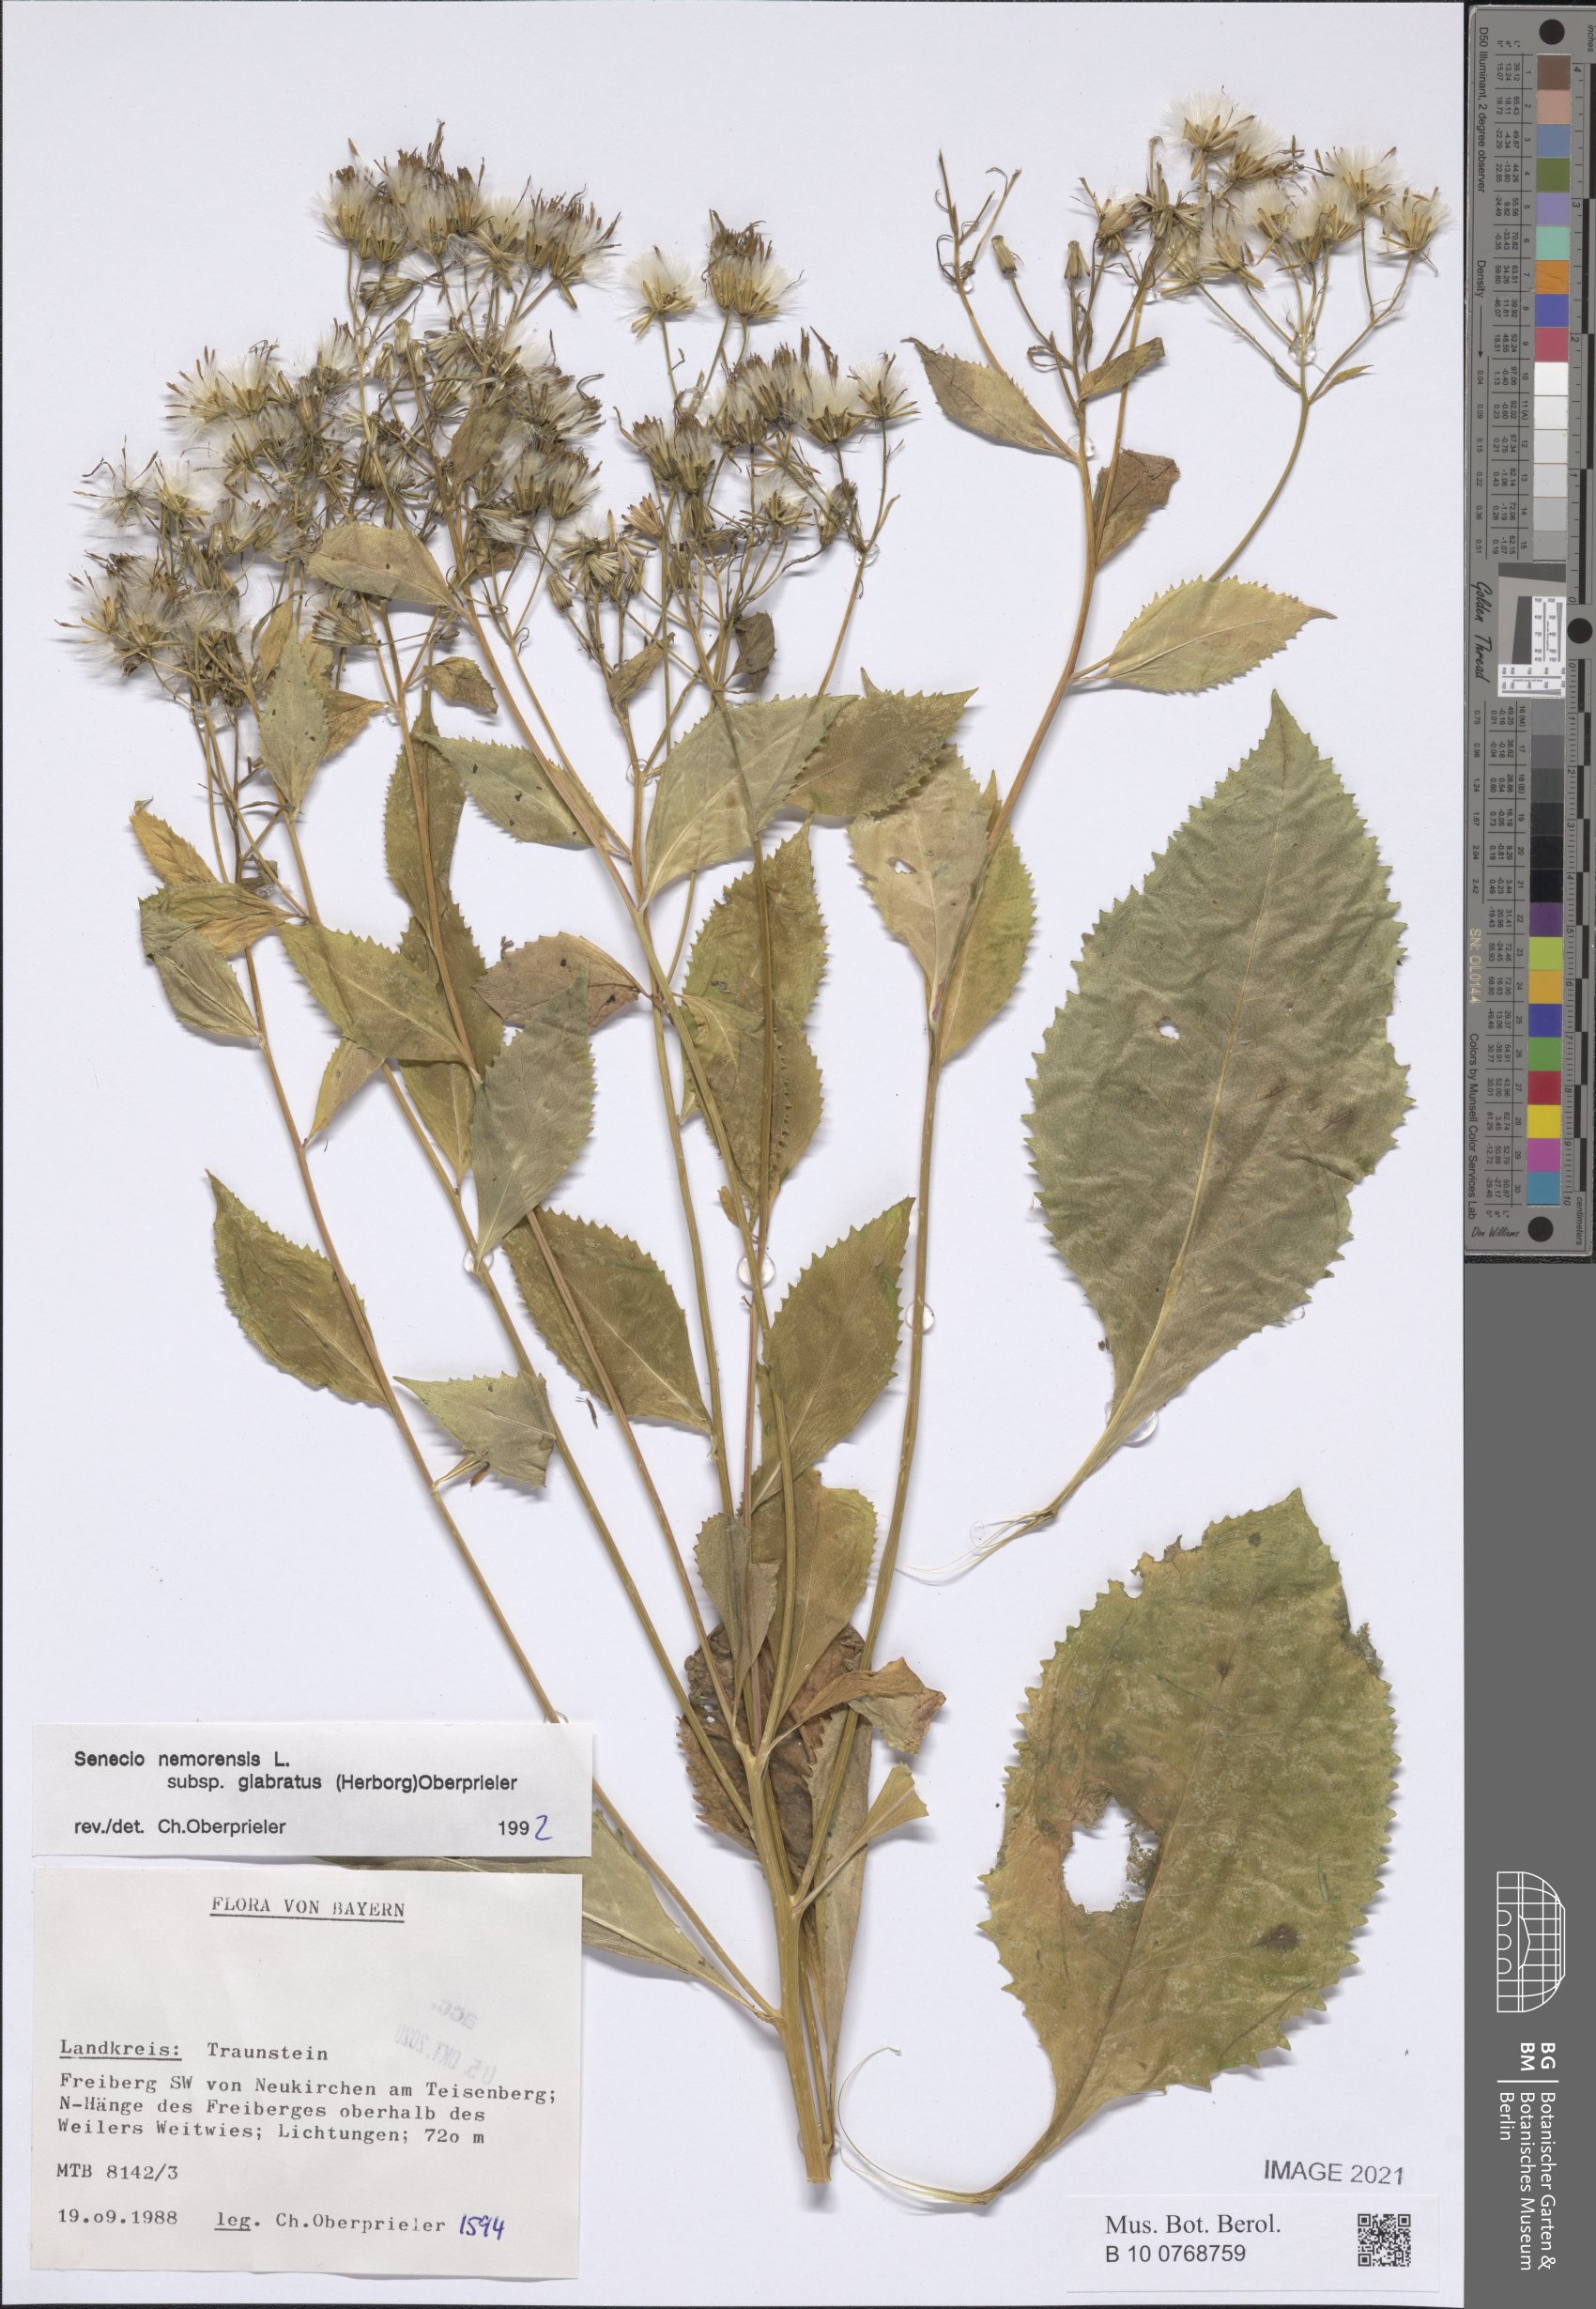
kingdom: Plantae
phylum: Tracheophyta
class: Magnoliopsida
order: Asterales
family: Asteraceae
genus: Senecio
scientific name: Senecio germanicus
